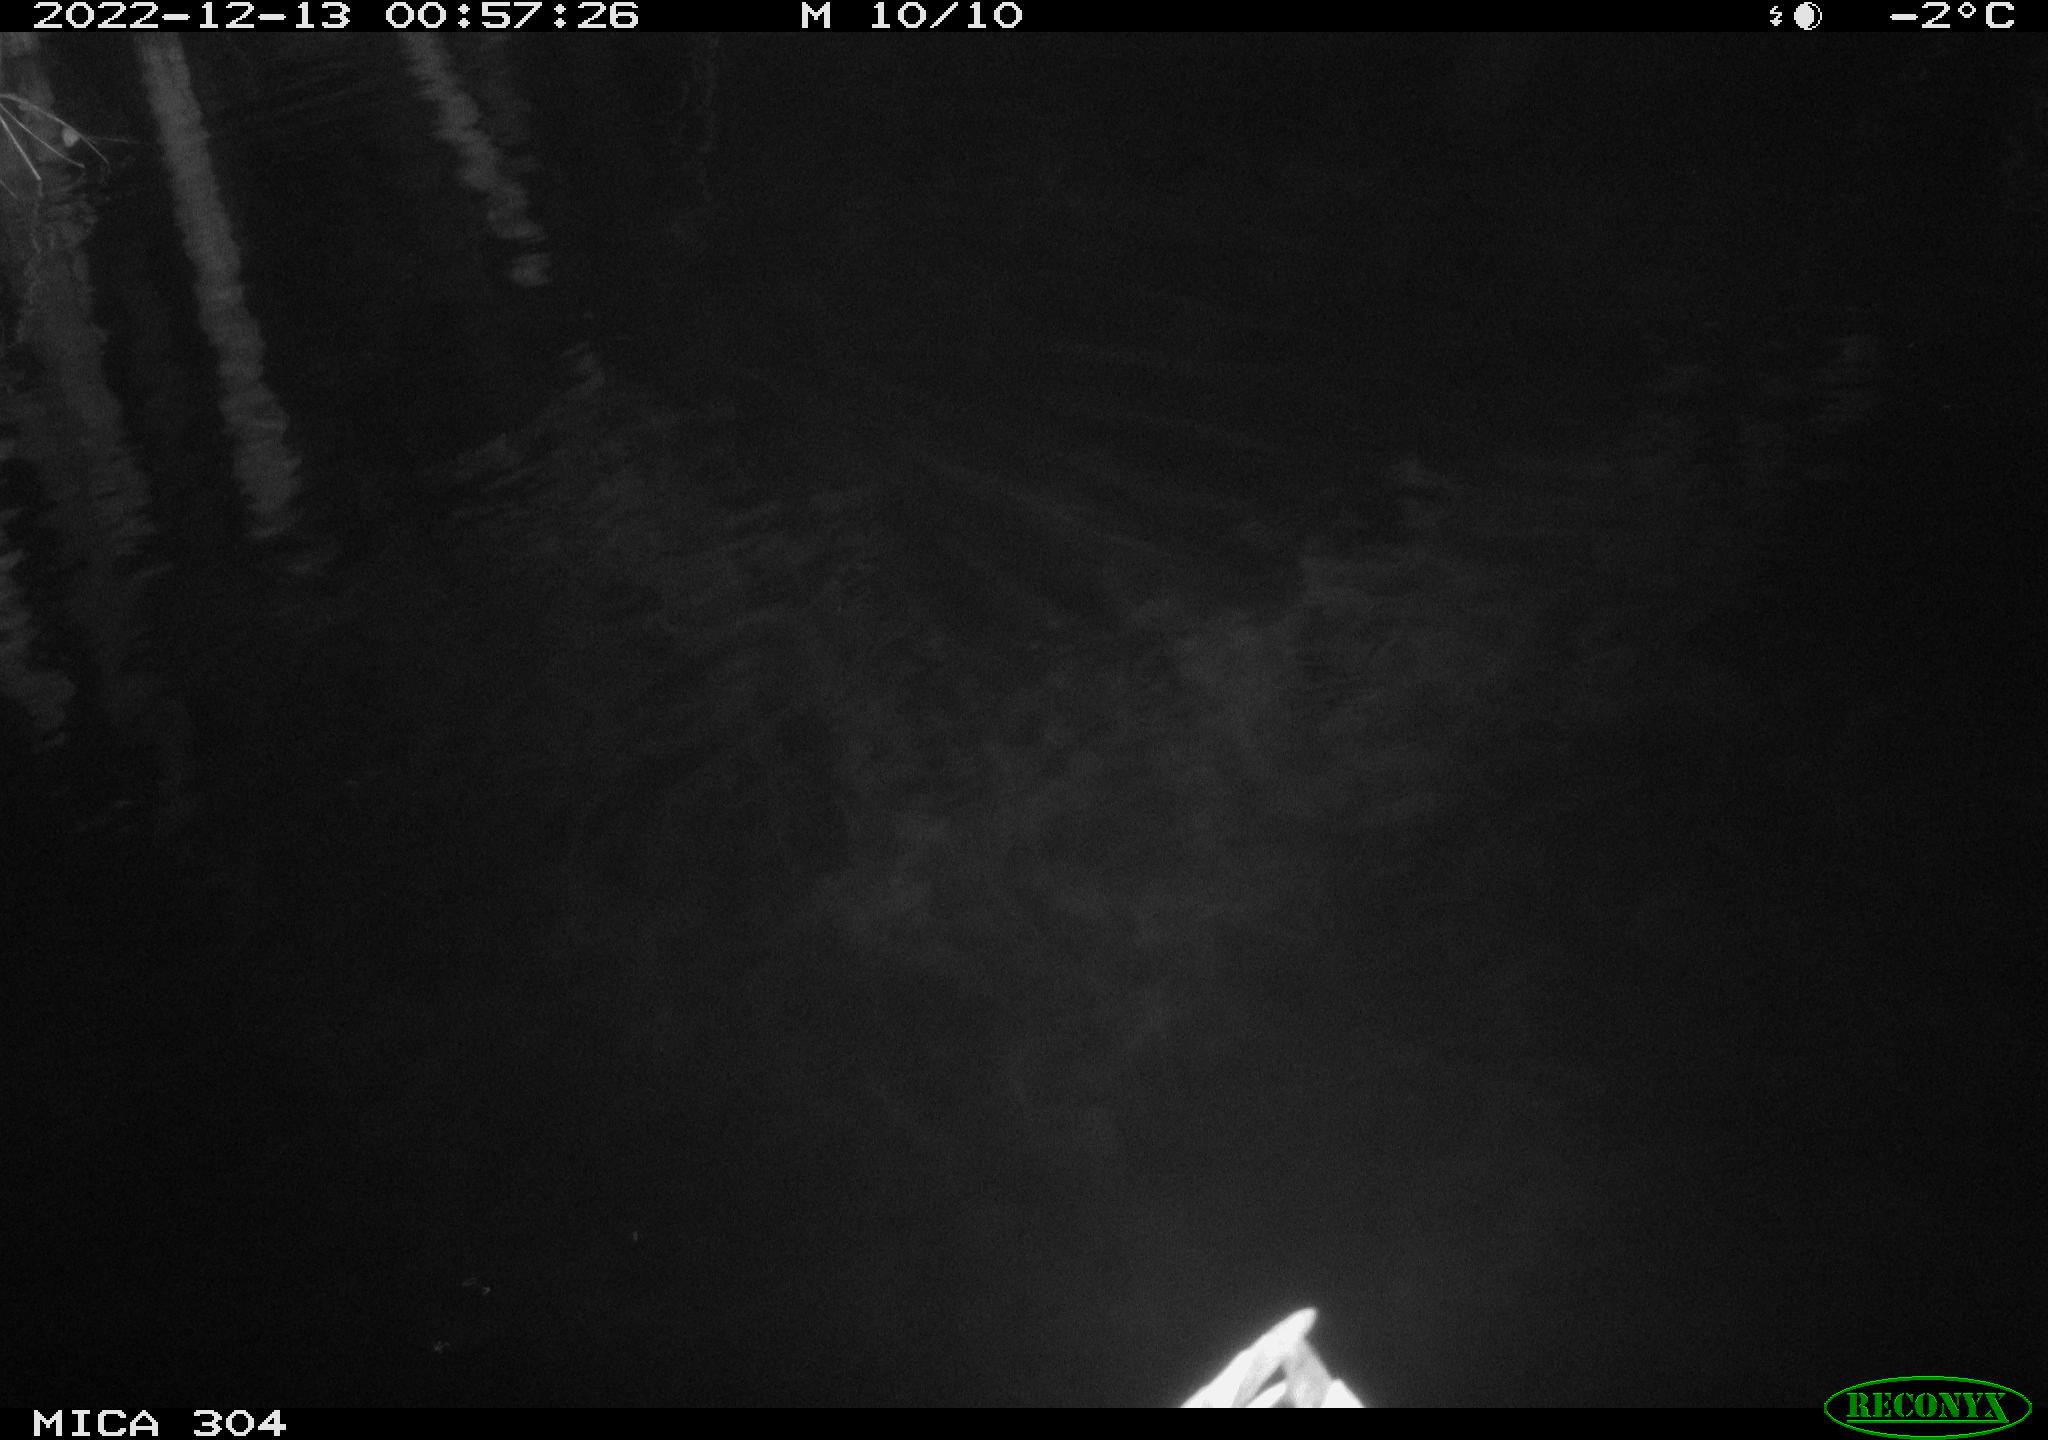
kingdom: Animalia
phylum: Chordata
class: Aves
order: Anseriformes
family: Anatidae
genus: Anas
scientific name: Anas
